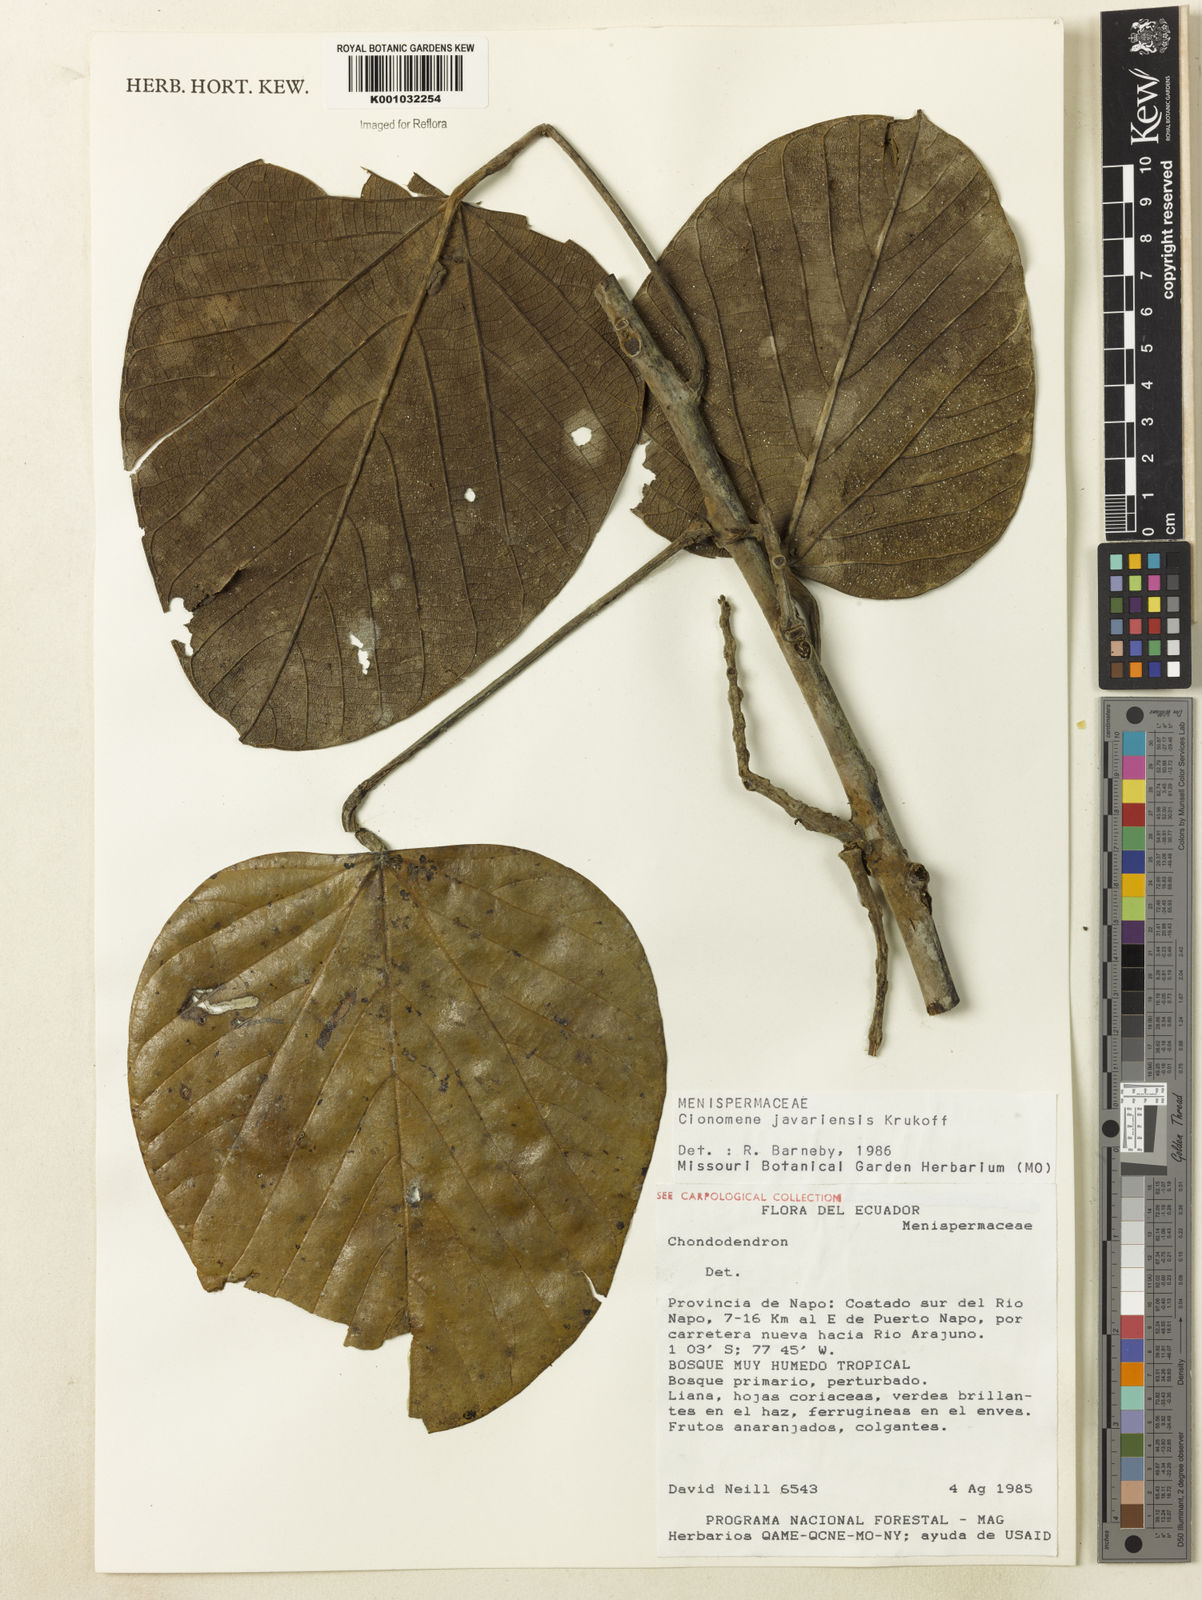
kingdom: Plantae
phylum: Tracheophyta
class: Magnoliopsida
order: Ranunculales
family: Menispermaceae
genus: Elephantomene
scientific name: Elephantomene eburnea
